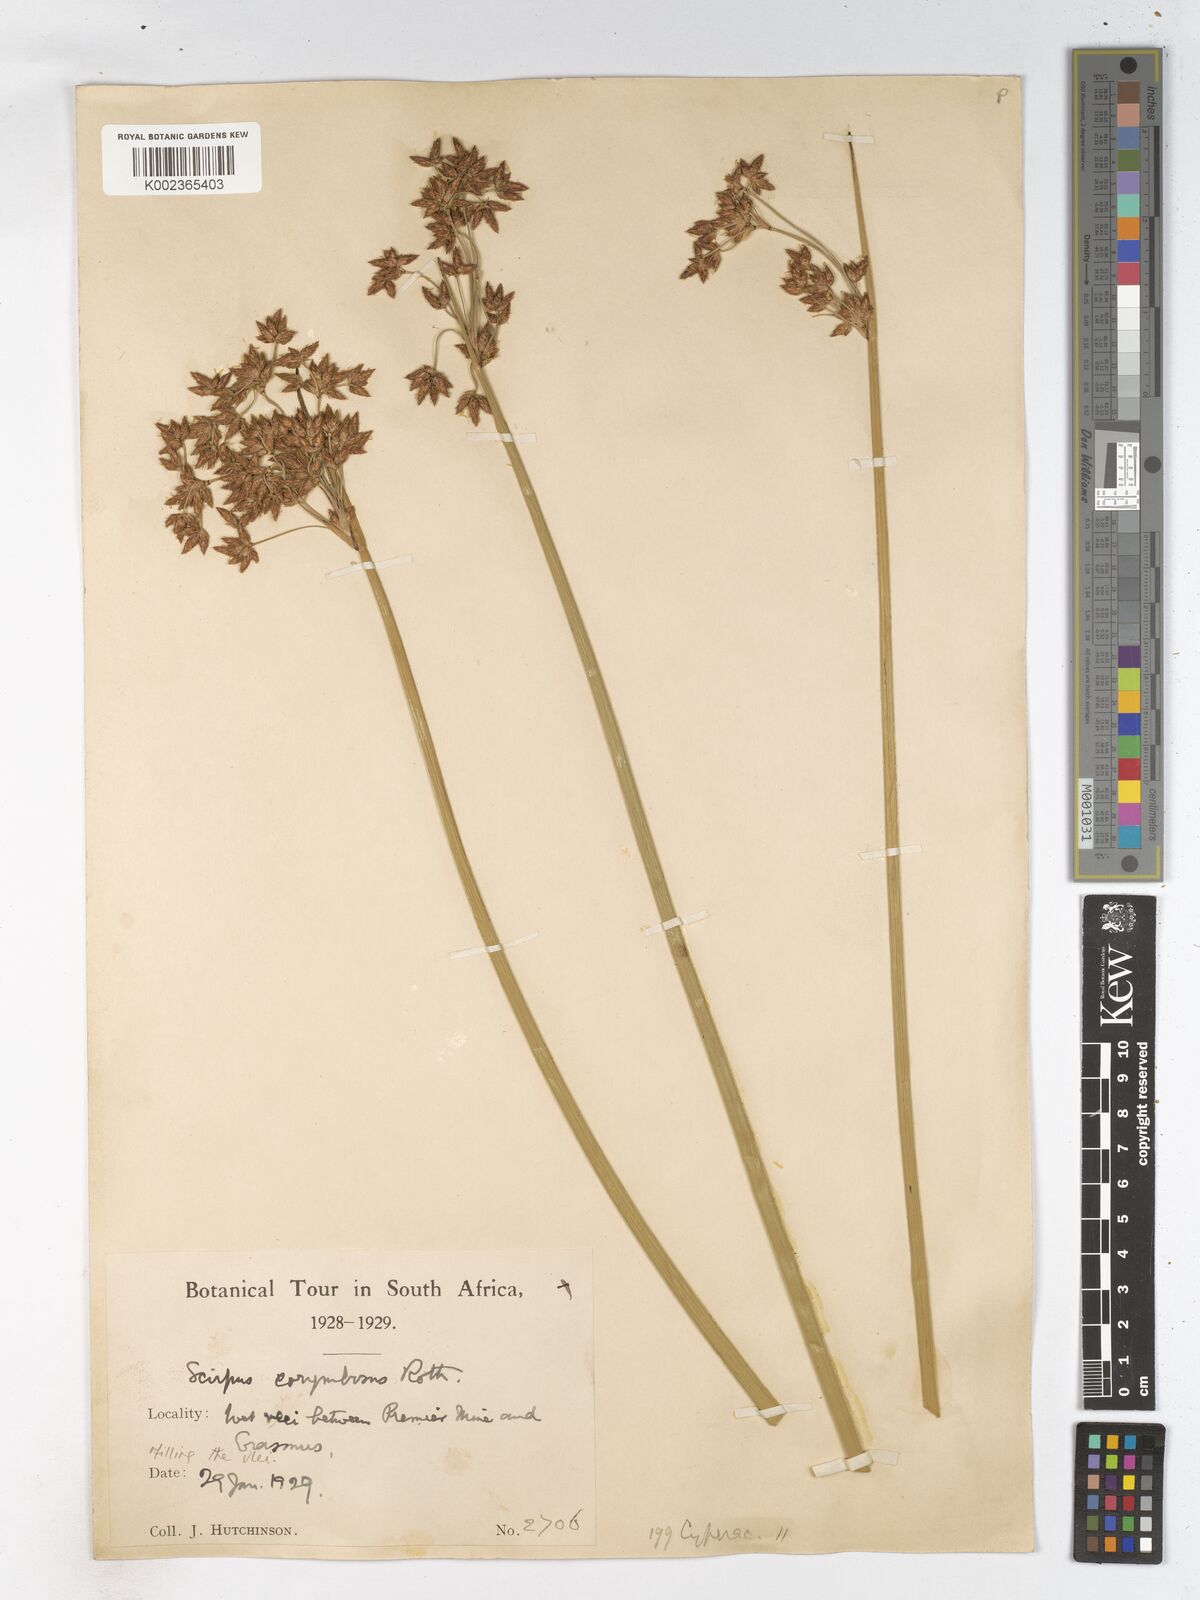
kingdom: Plantae
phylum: Tracheophyta
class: Liliopsida
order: Poales
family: Cyperaceae
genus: Schoenoplectiella
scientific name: Schoenoplectiella brachyceras
